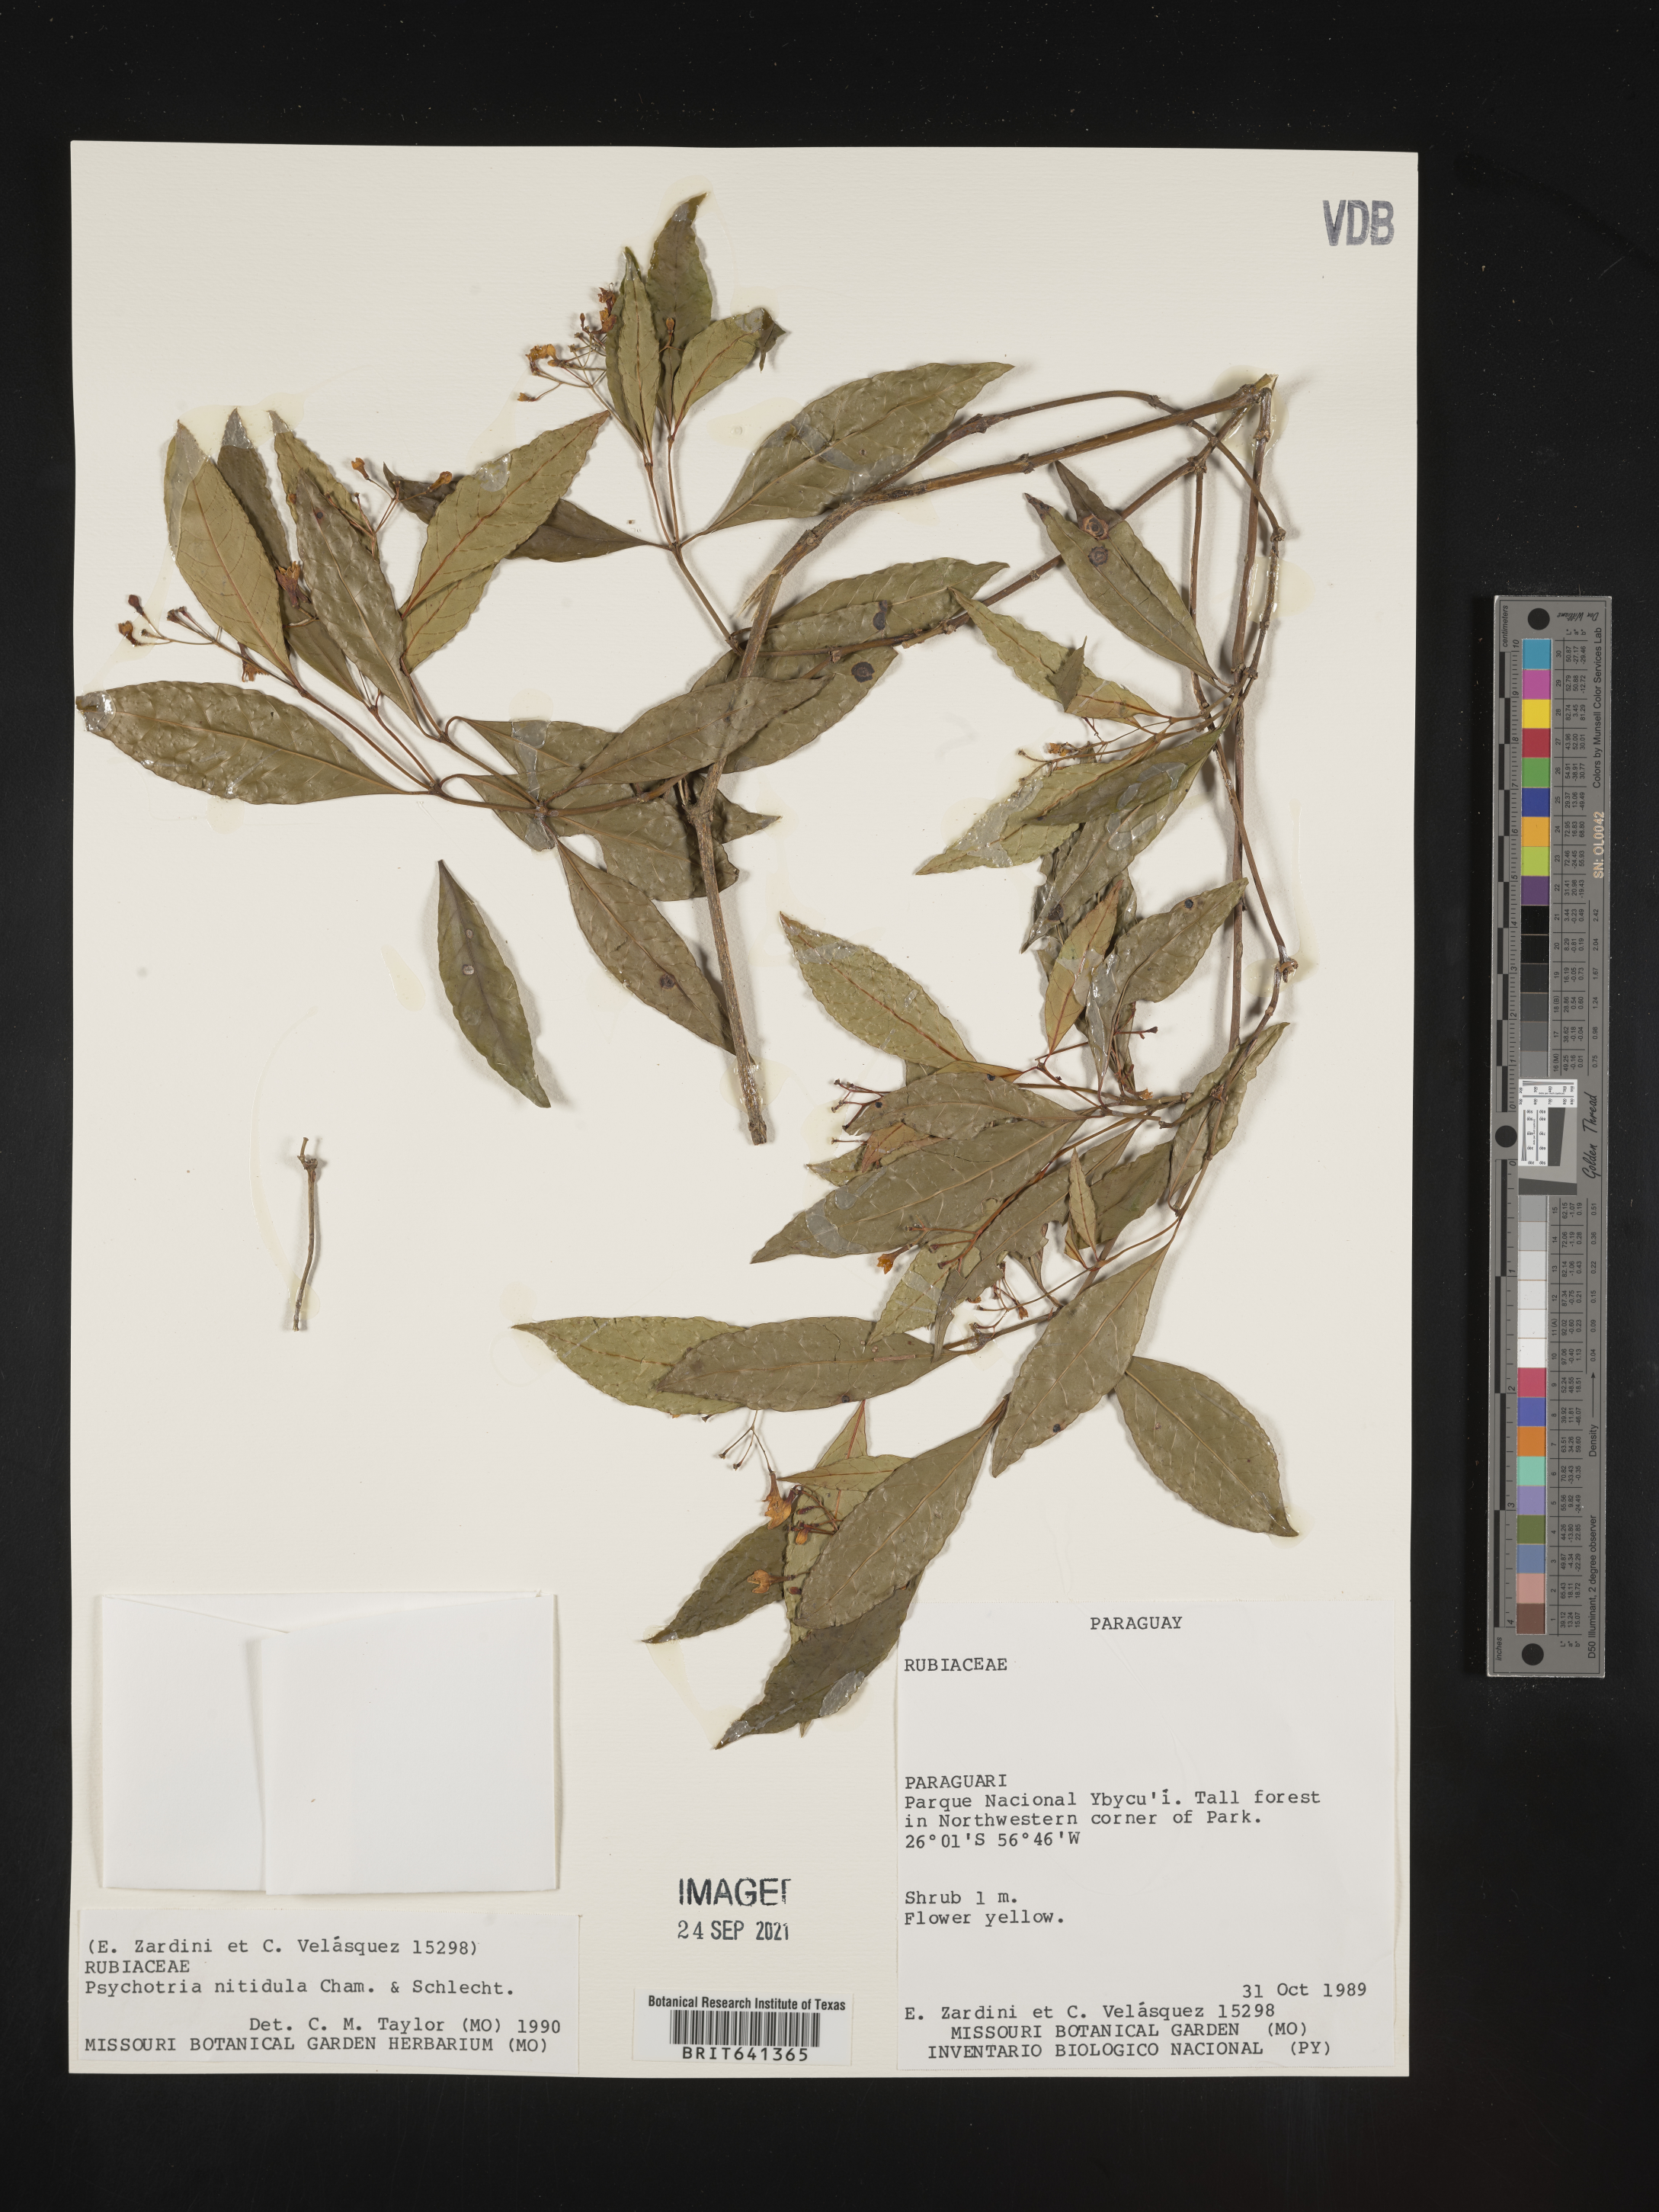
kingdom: Plantae
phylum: Tracheophyta
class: Magnoliopsida
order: Gentianales
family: Rubiaceae
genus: Psychotria
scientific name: Psychotria
